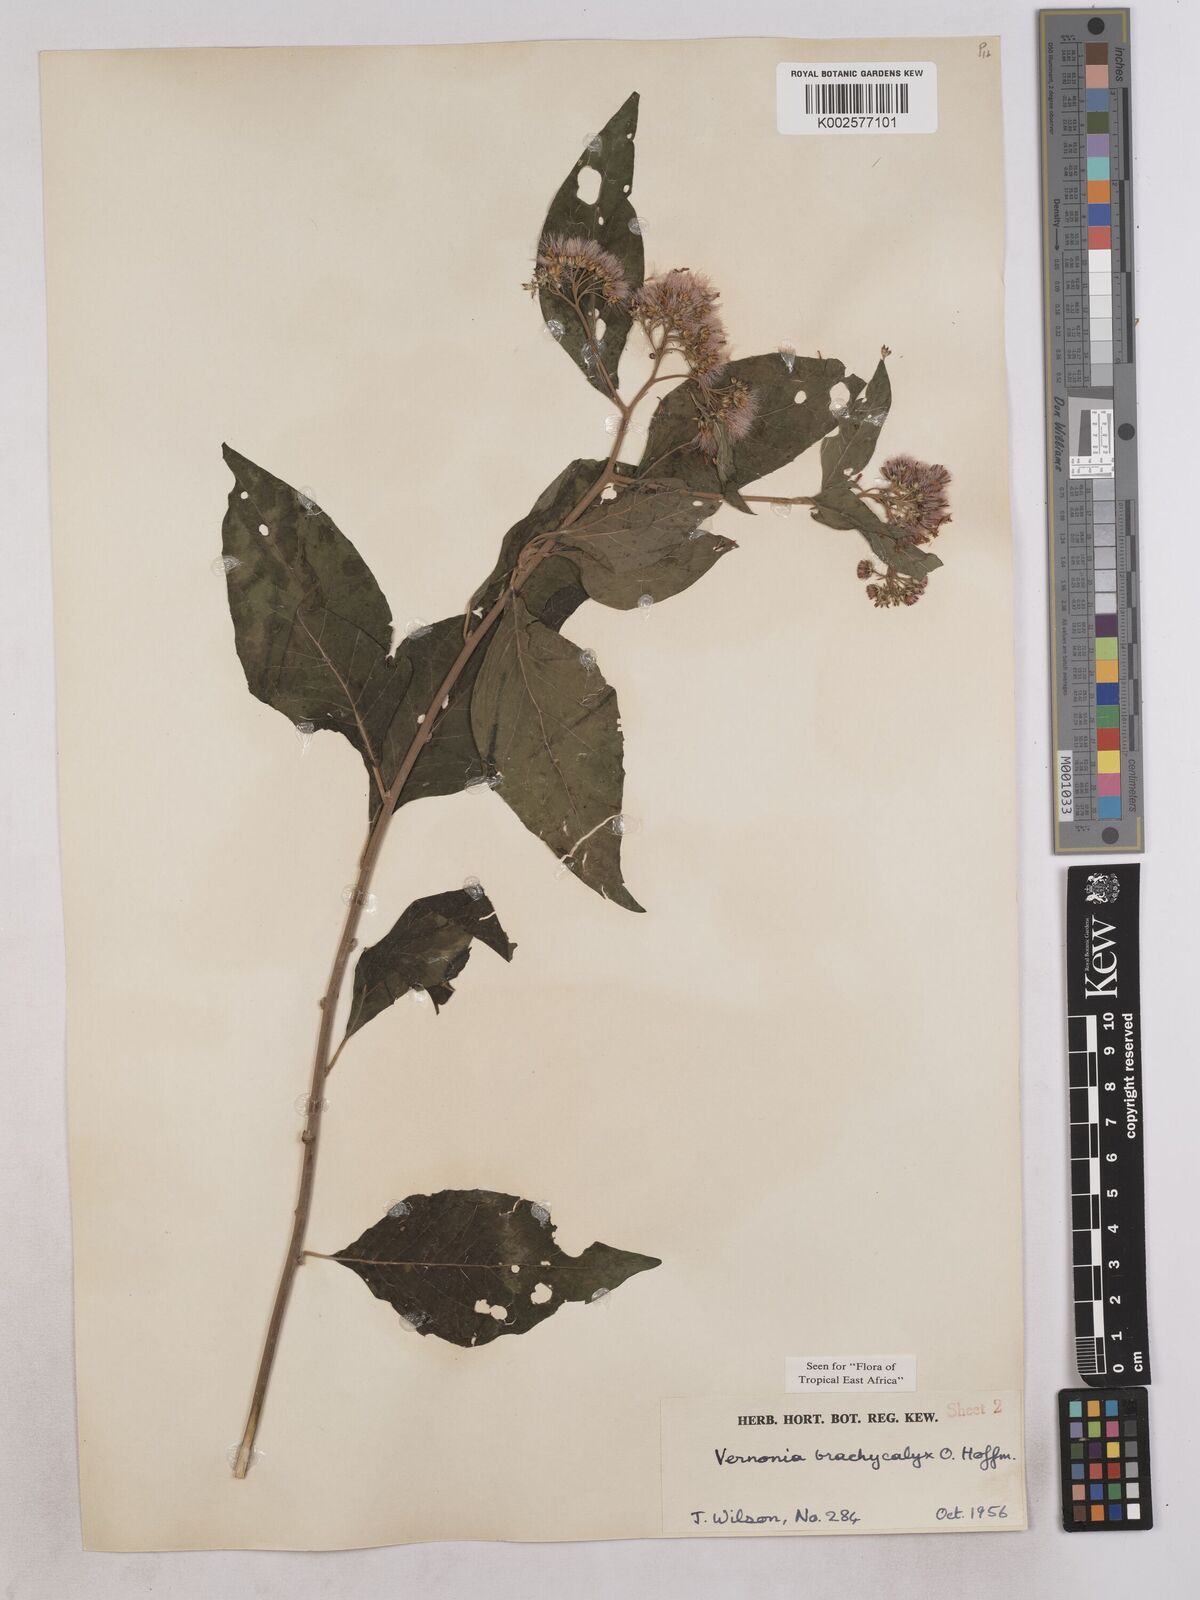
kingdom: Plantae
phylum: Tracheophyta
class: Magnoliopsida
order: Asterales
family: Asteraceae
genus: Hoffmannanthus
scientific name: Hoffmannanthus abbotianus
